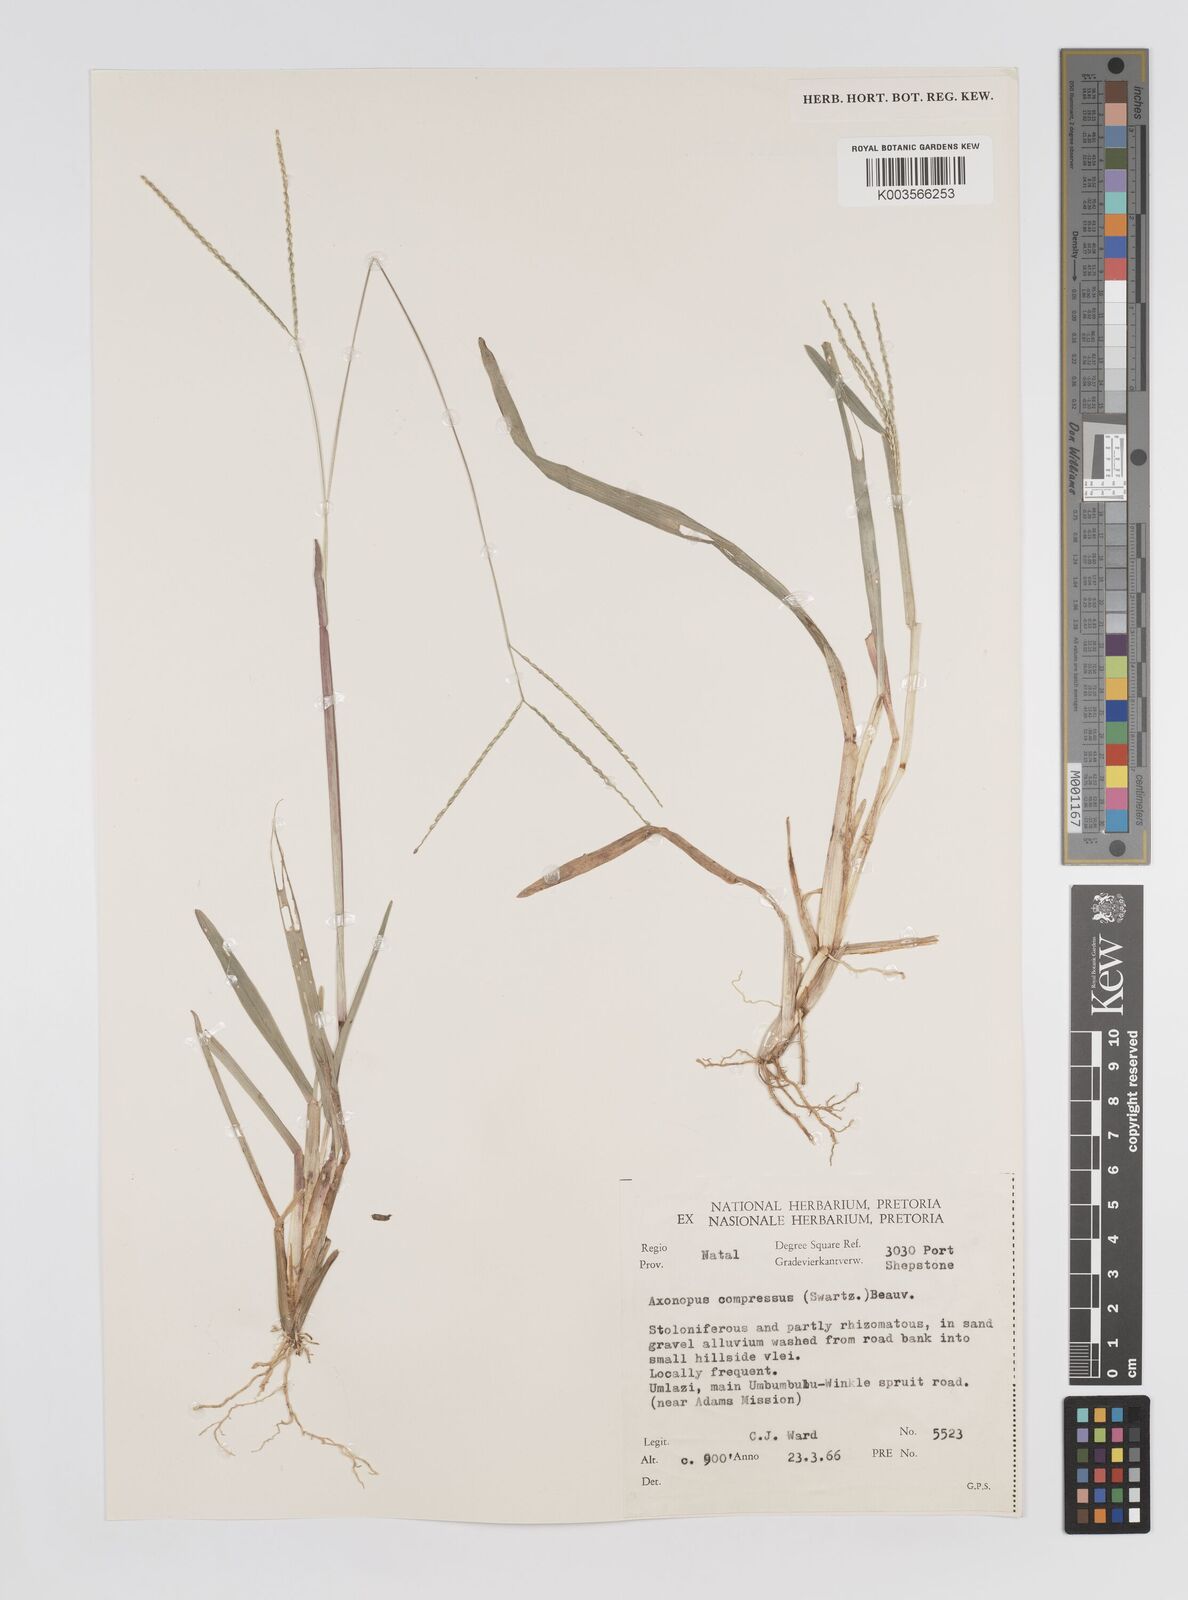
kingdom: Plantae
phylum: Tracheophyta
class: Liliopsida
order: Poales
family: Poaceae
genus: Axonopus
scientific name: Axonopus fissifolius
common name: Common carpetgrass
